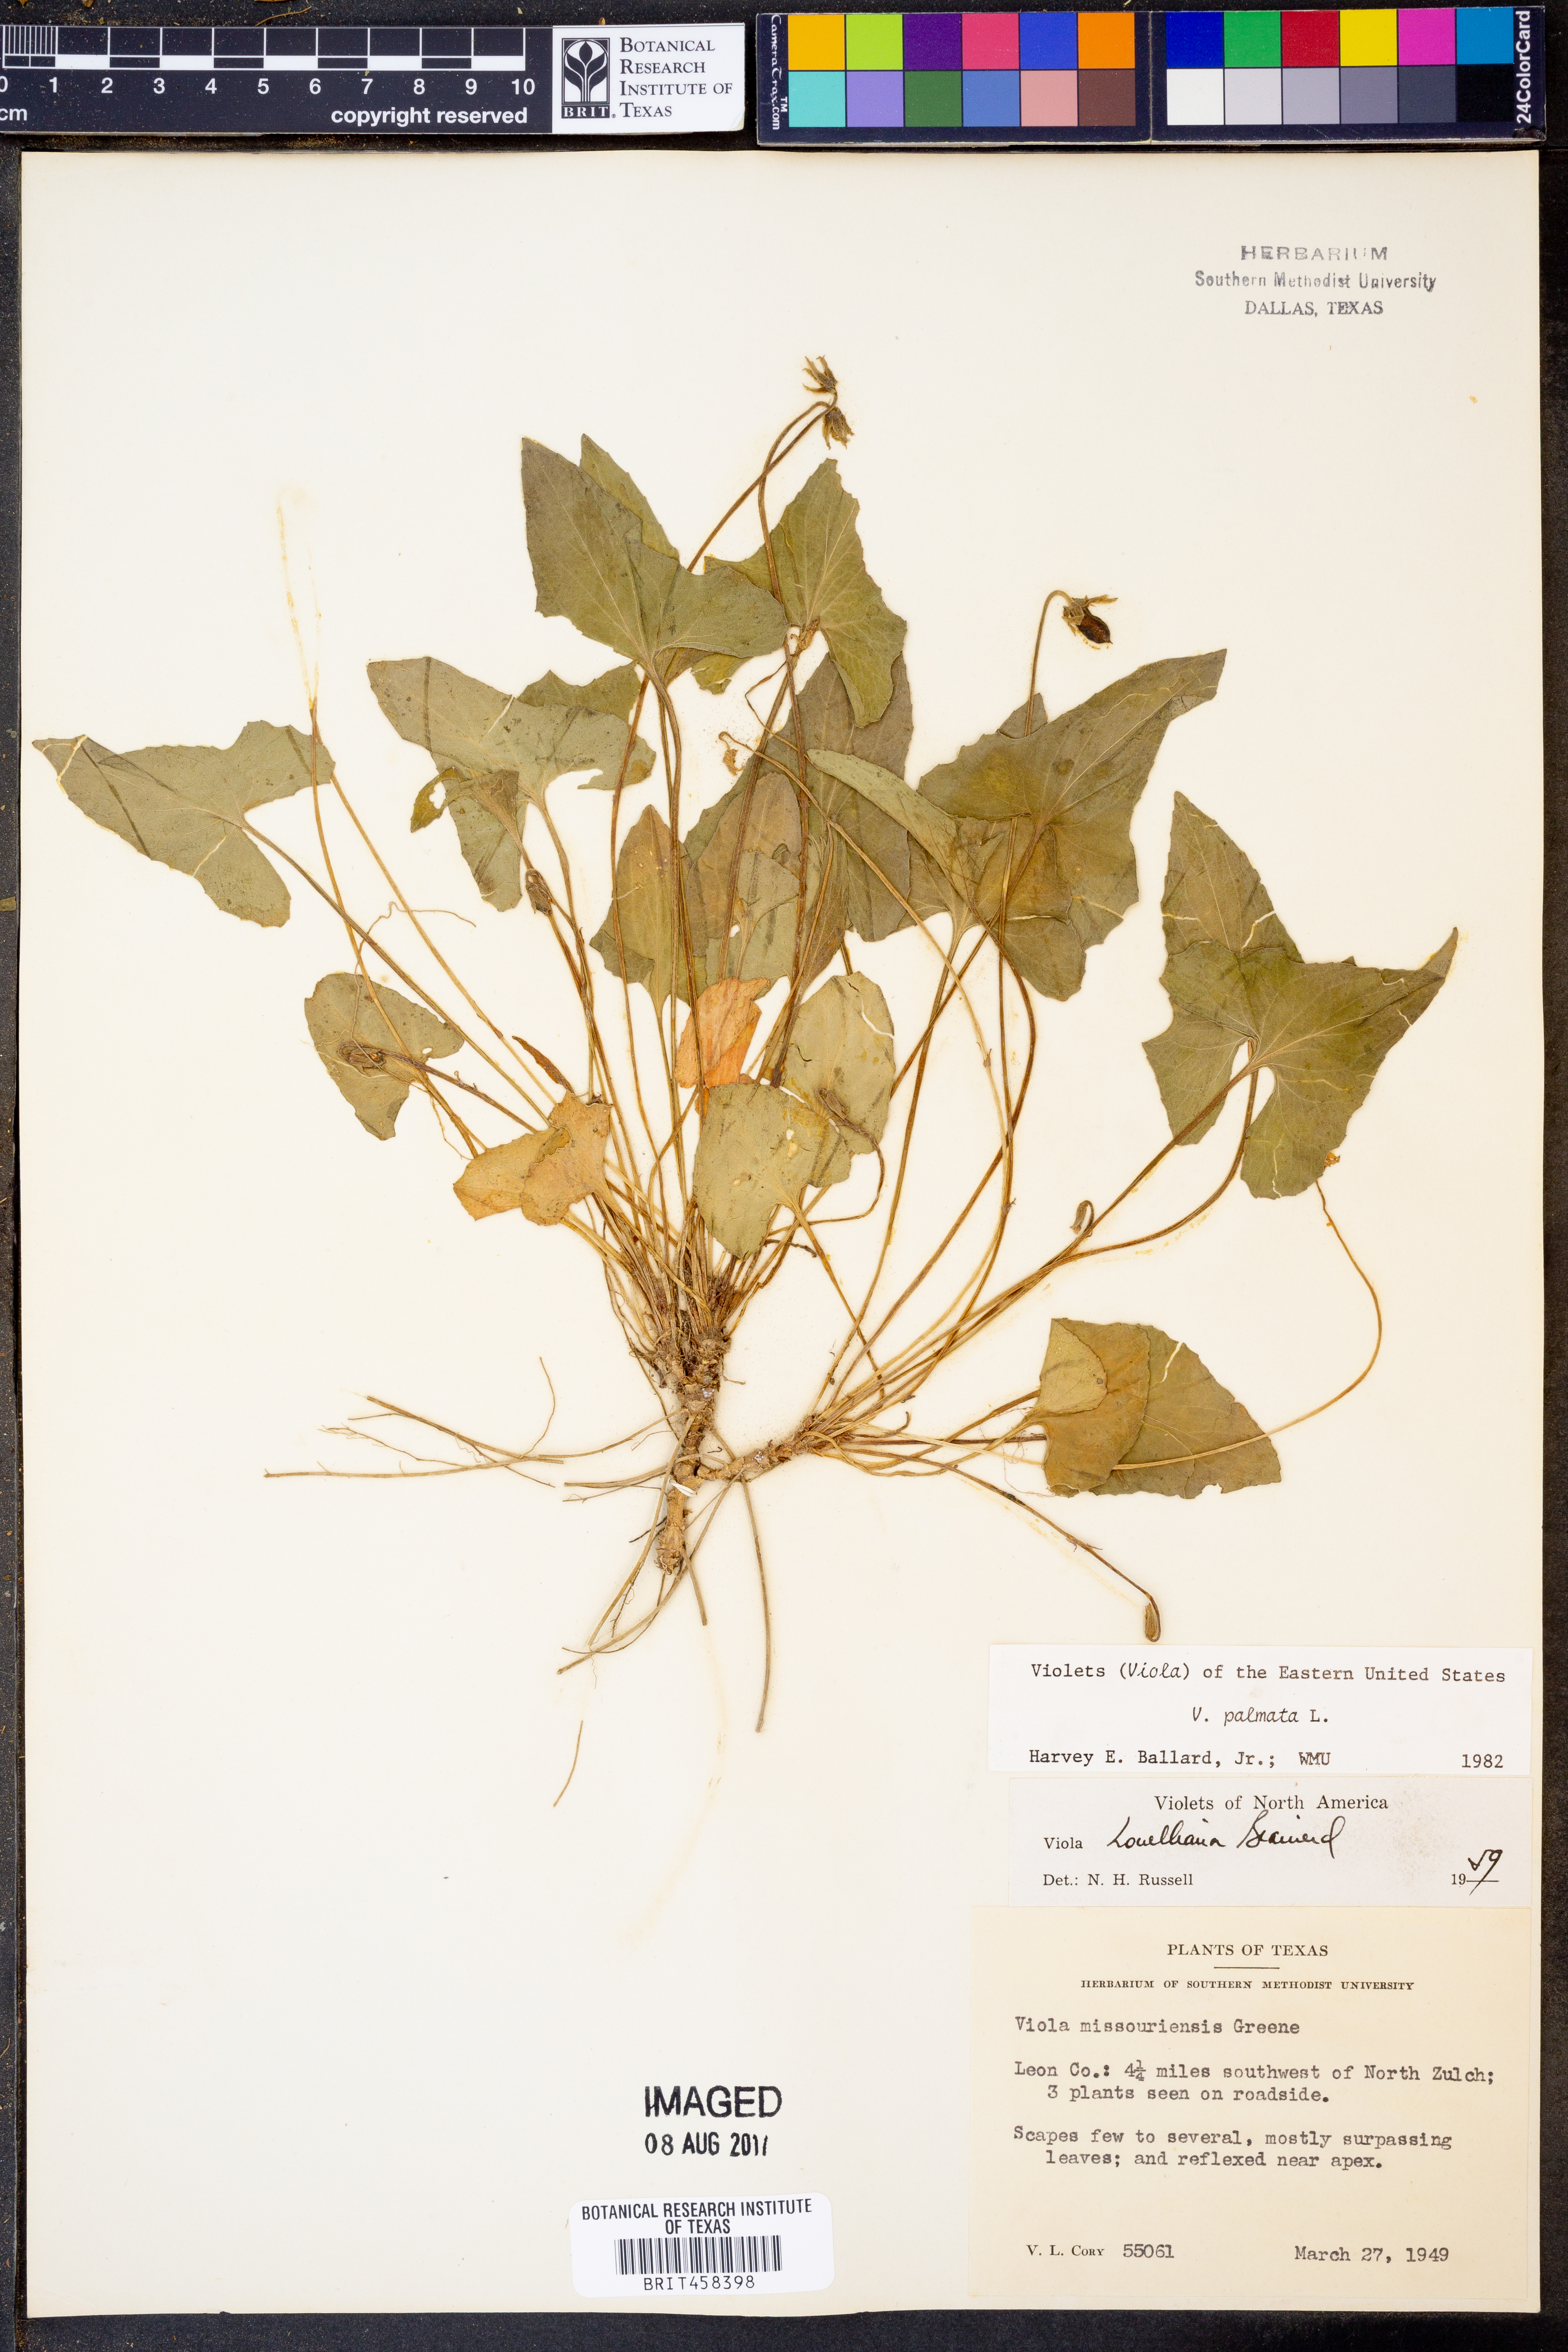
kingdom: Plantae
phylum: Tracheophyta
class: Magnoliopsida
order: Malpighiales
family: Violaceae
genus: Viola
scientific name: Viola palmata
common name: Early blue violet
